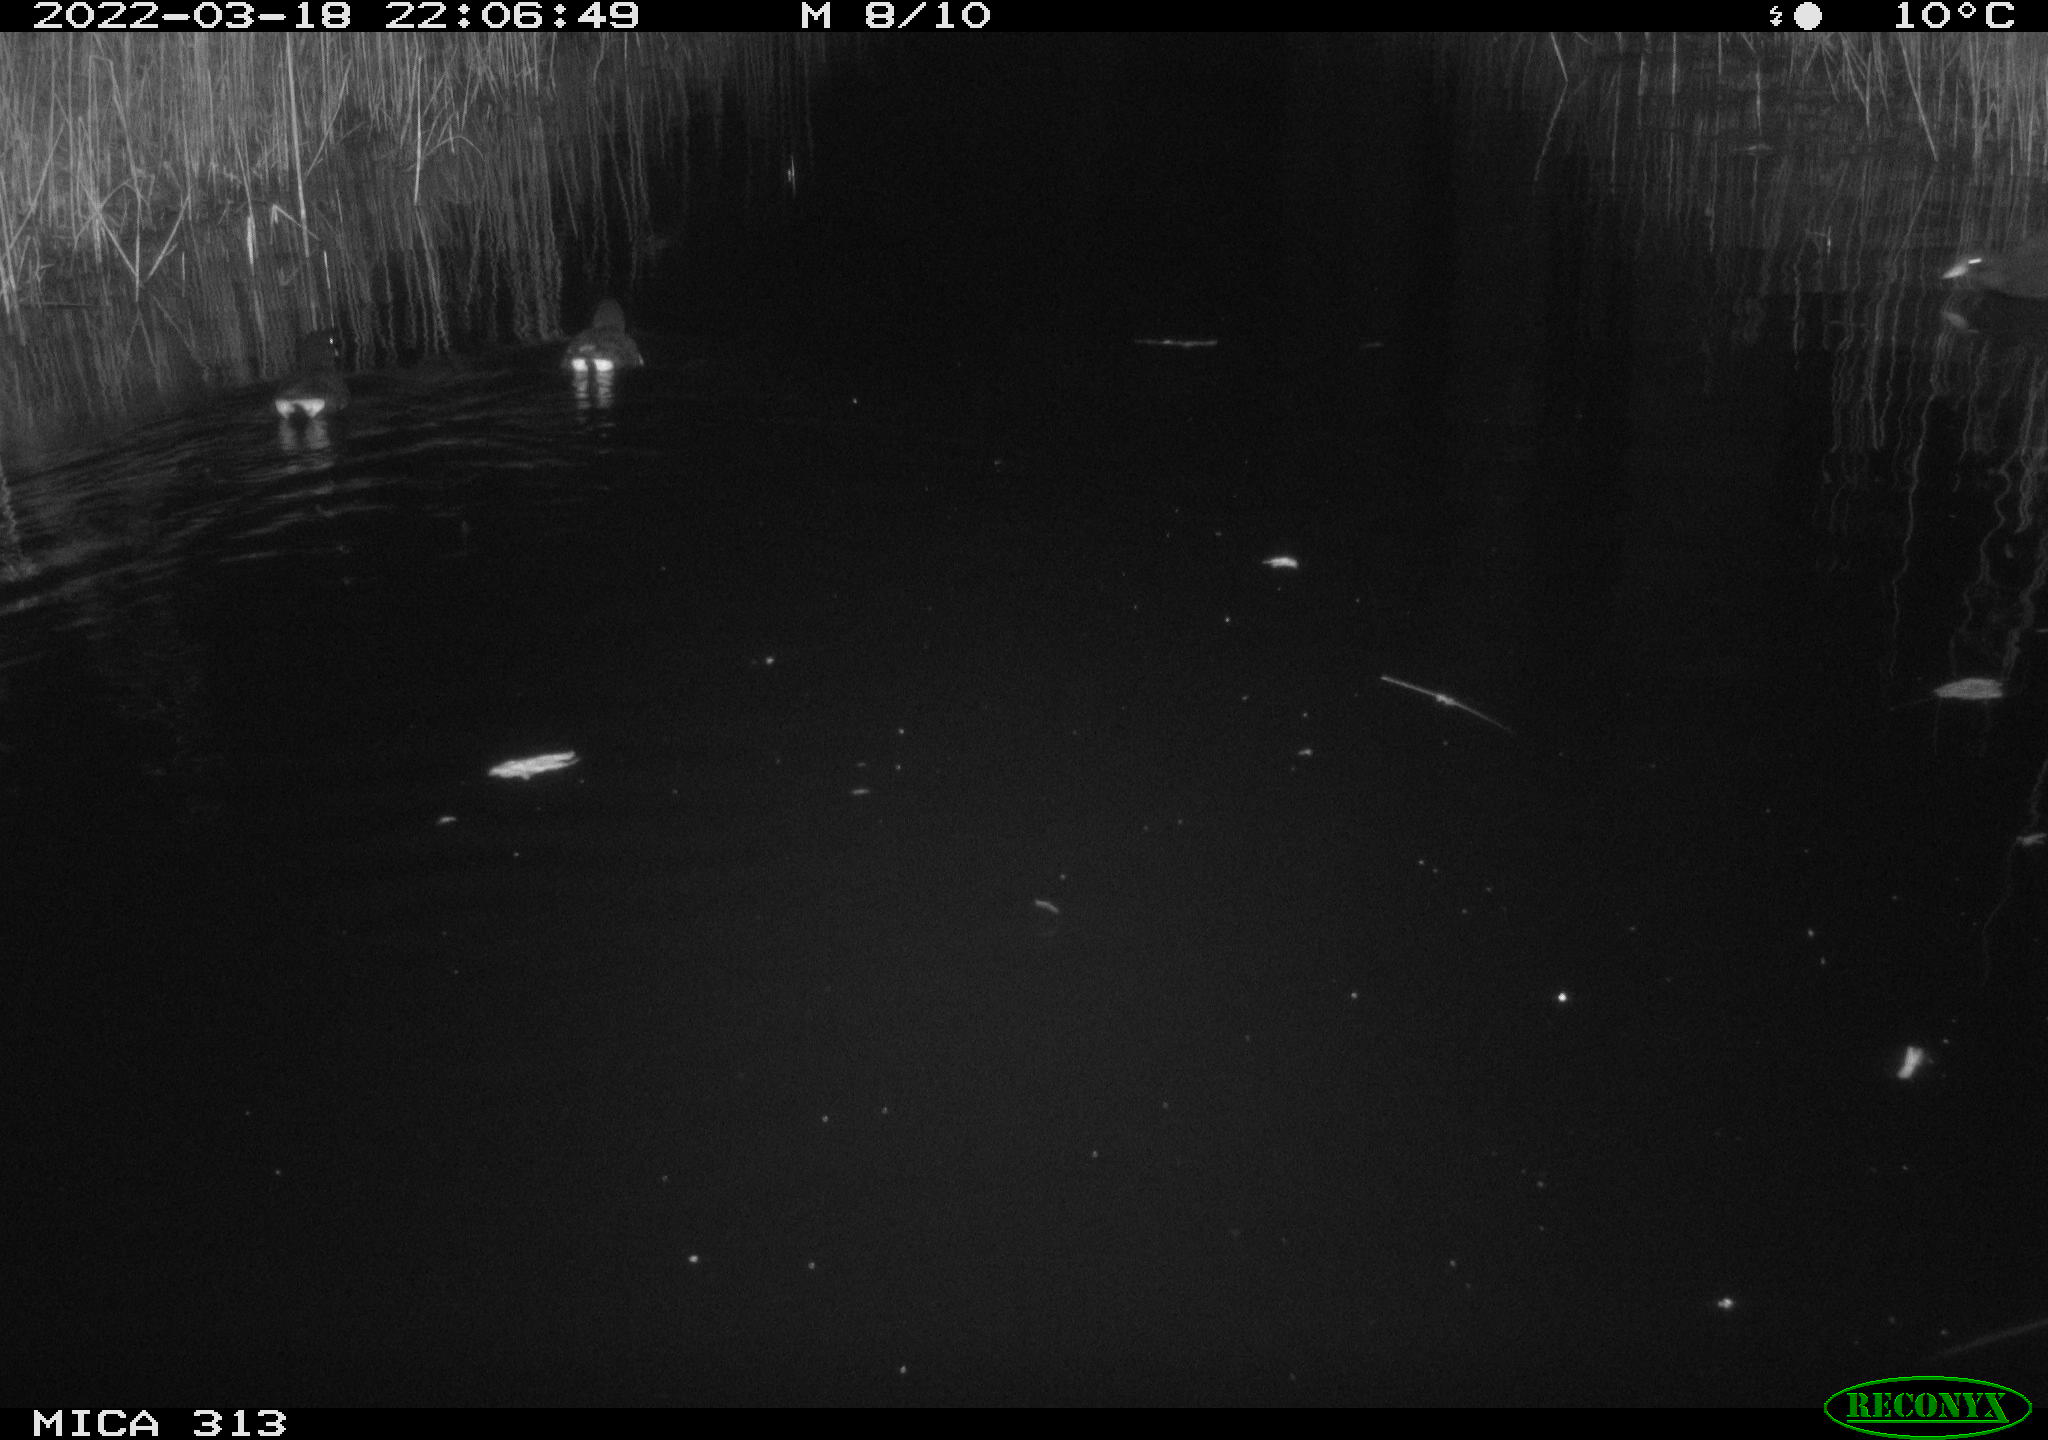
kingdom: Animalia
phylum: Chordata
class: Aves
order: Gruiformes
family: Rallidae
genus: Gallinula
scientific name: Gallinula chloropus
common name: Common moorhen
